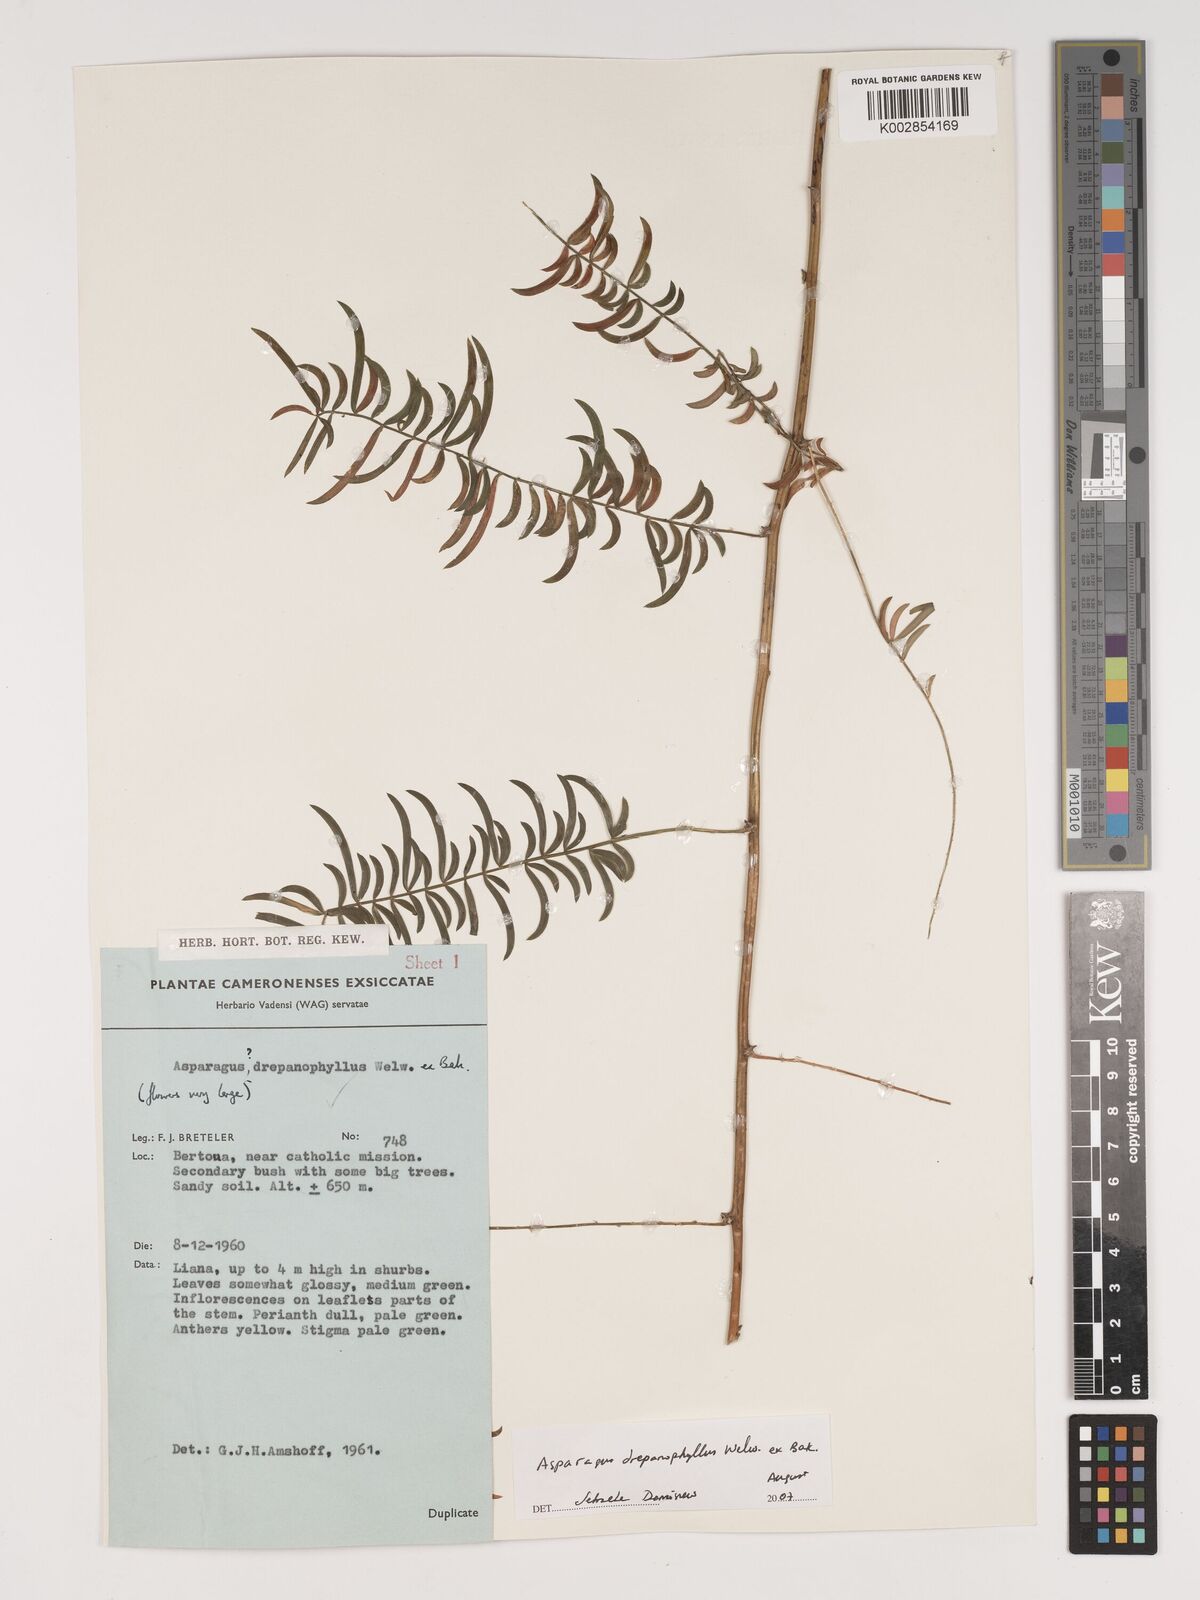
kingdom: Plantae
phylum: Tracheophyta
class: Liliopsida
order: Asparagales
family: Asparagaceae
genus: Asparagus
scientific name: Asparagus drepanophyllus
